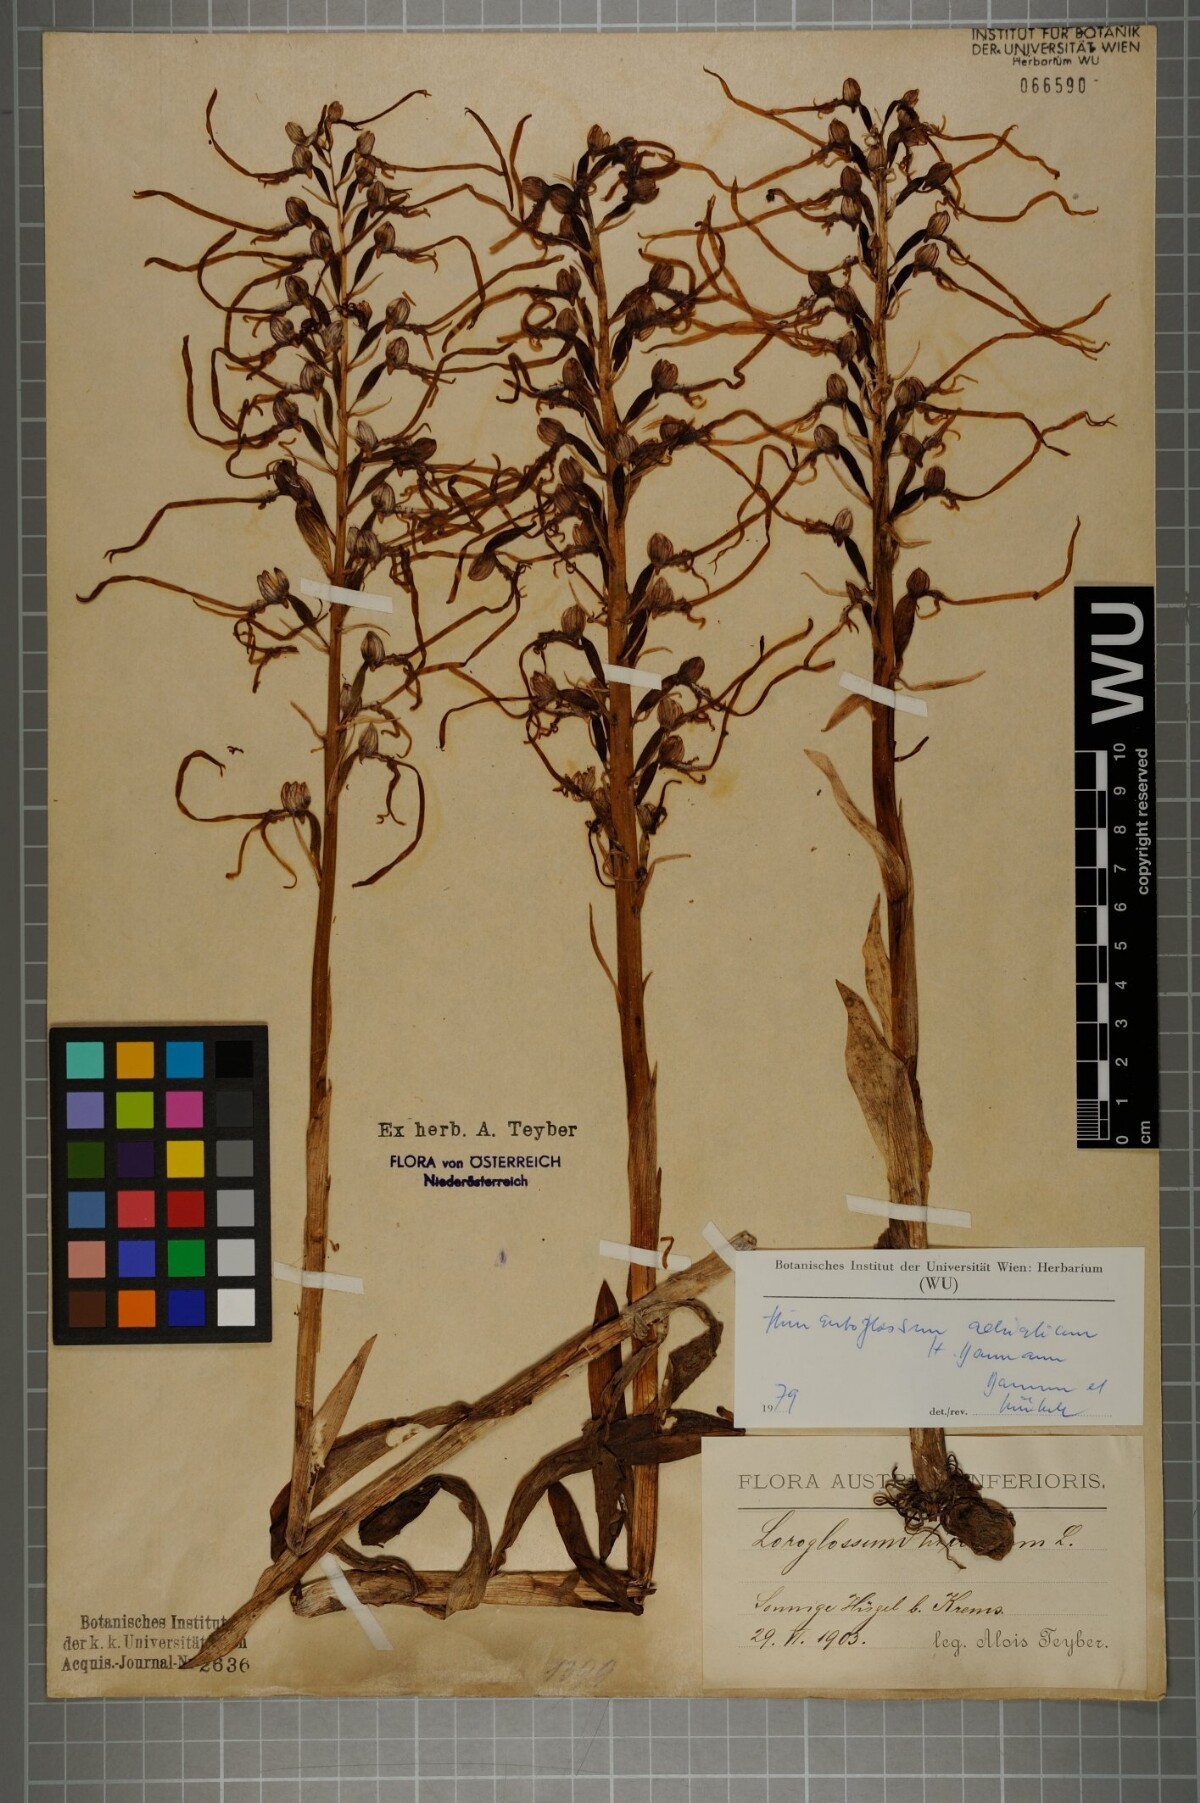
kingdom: Plantae
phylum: Tracheophyta
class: Liliopsida
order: Asparagales
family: Orchidaceae
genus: Himantoglossum
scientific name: Himantoglossum adriaticum
